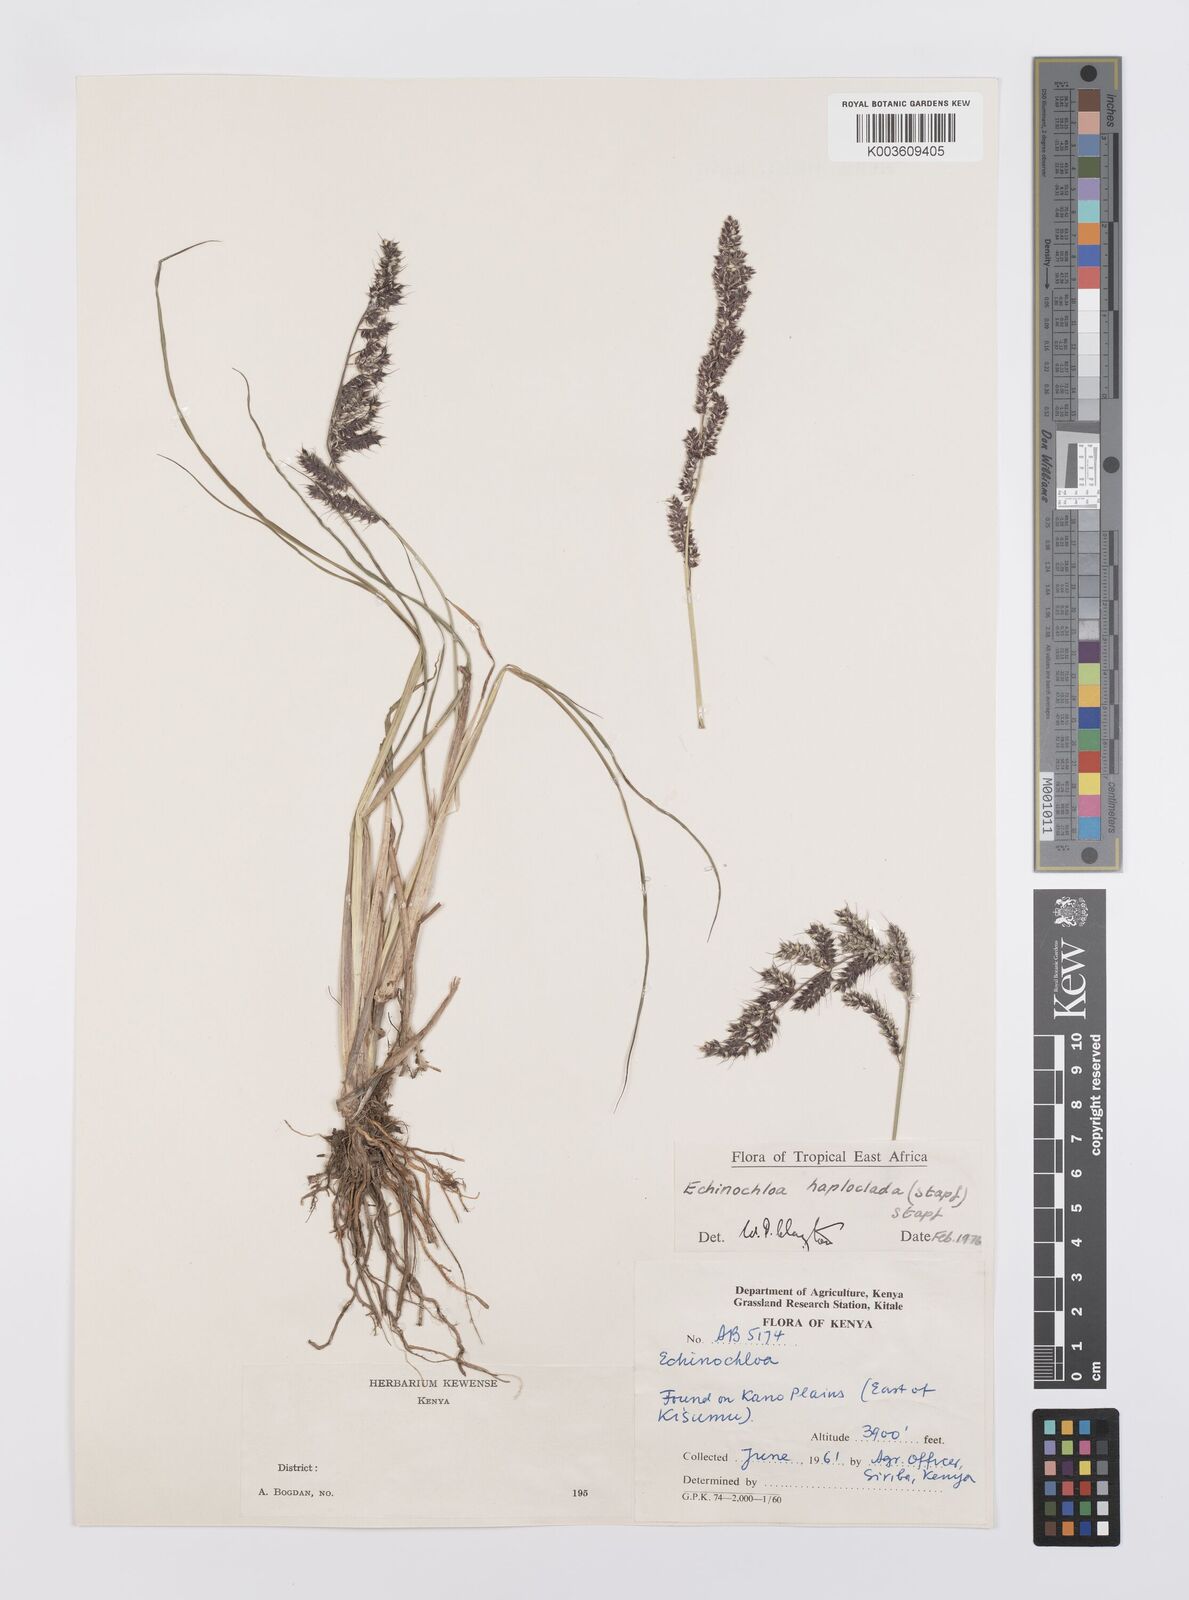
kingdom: Plantae
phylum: Tracheophyta
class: Liliopsida
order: Poales
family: Poaceae
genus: Echinochloa
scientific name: Echinochloa haploclada
